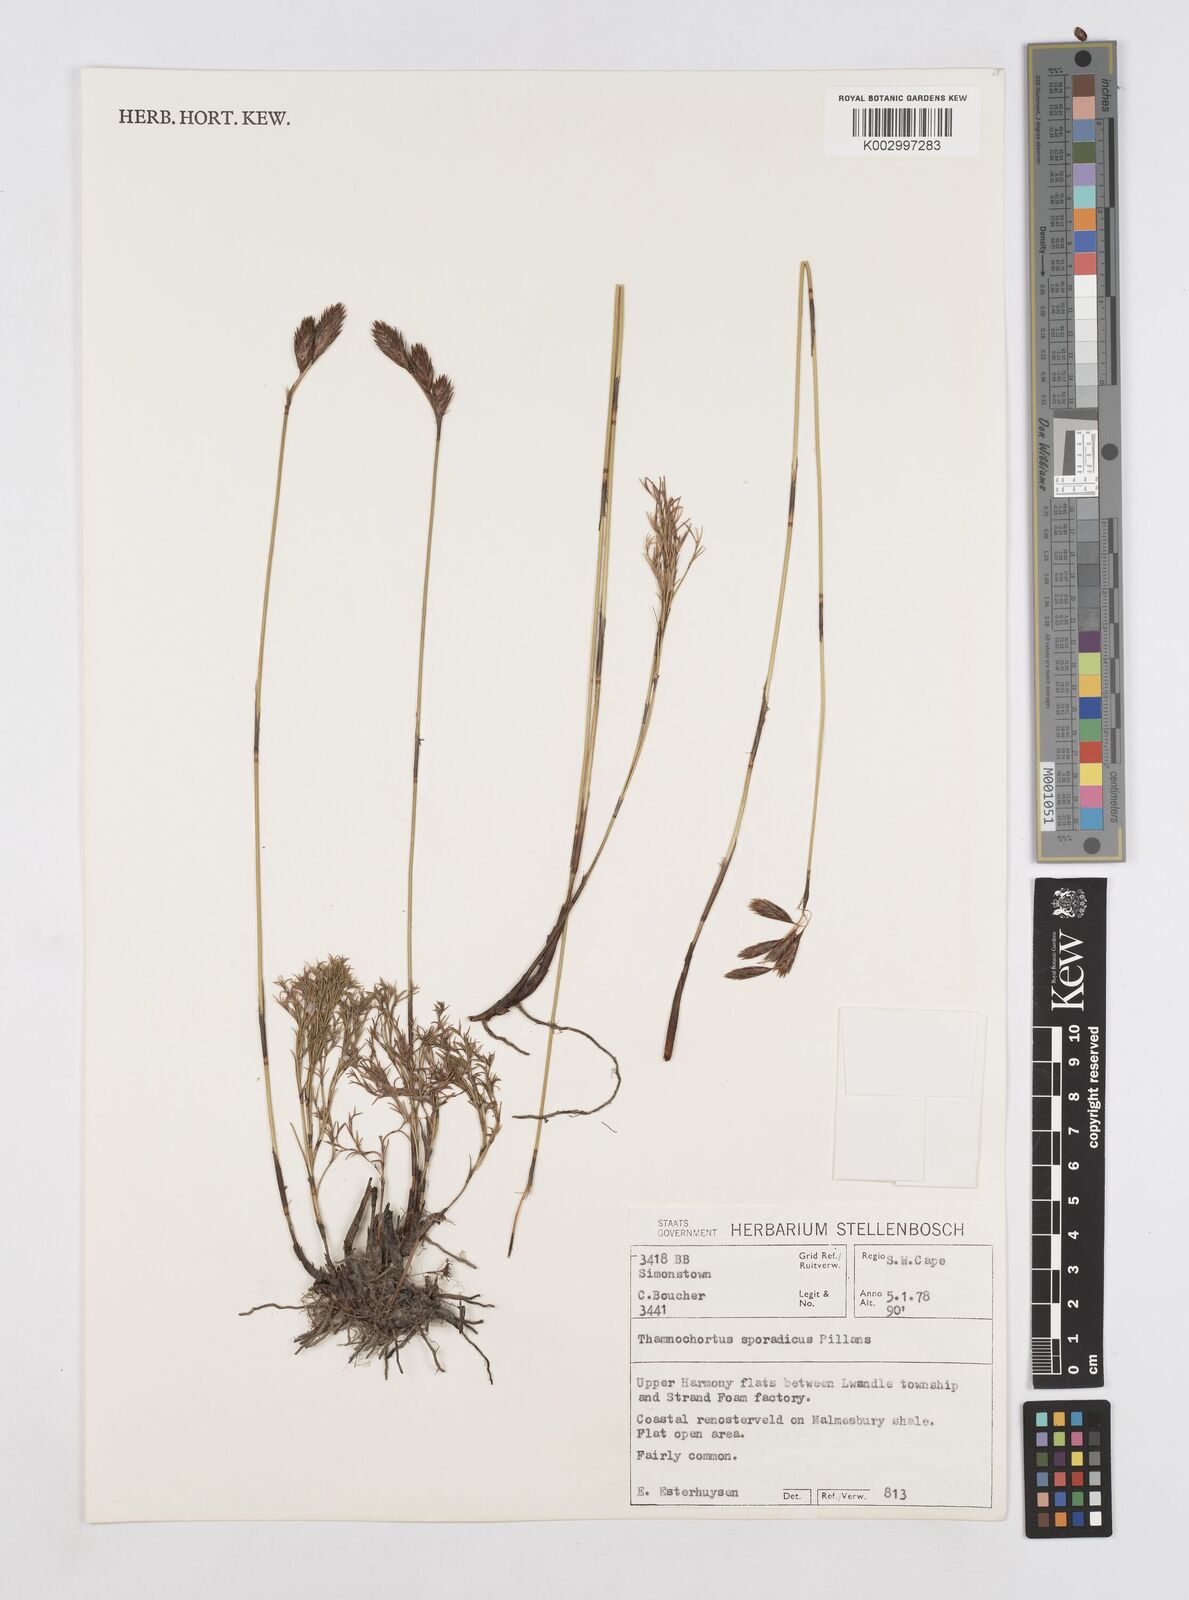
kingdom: Plantae
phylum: Tracheophyta
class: Liliopsida
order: Poales
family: Restionaceae
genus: Thamnochortus
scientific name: Thamnochortus sporadicus
